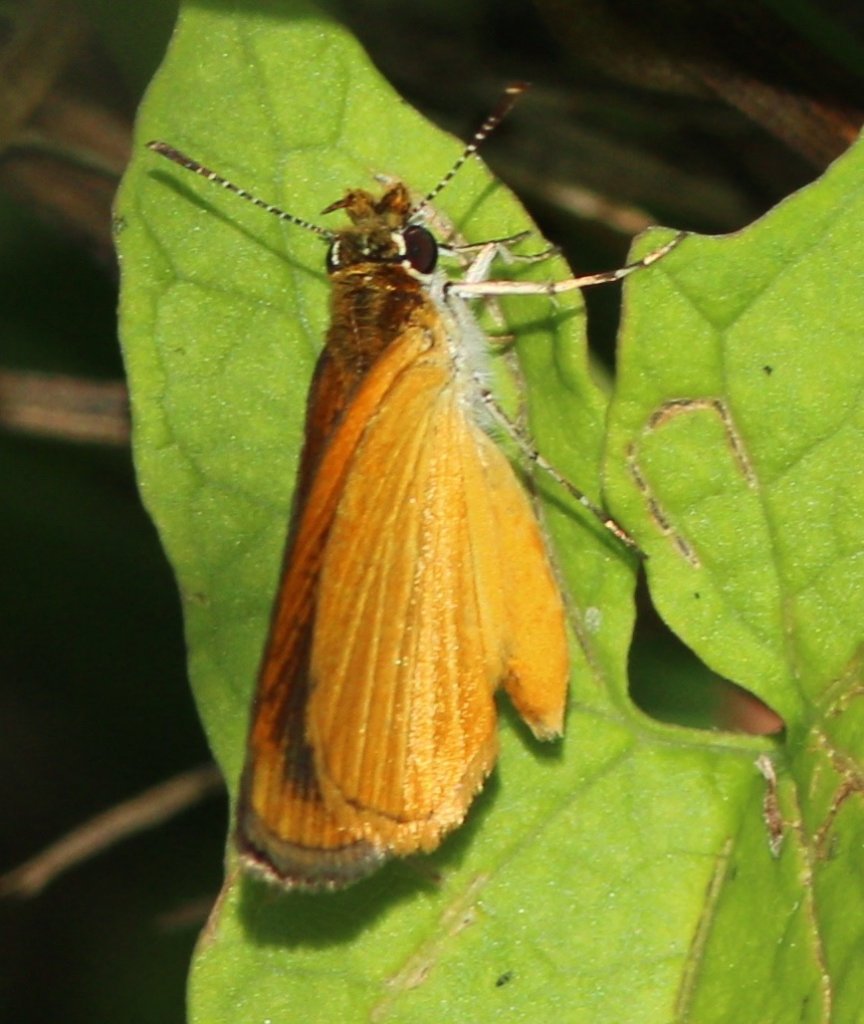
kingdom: Animalia
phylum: Arthropoda
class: Insecta
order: Lepidoptera
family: Hesperiidae
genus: Ancyloxypha
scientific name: Ancyloxypha numitor
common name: Least Skipper
